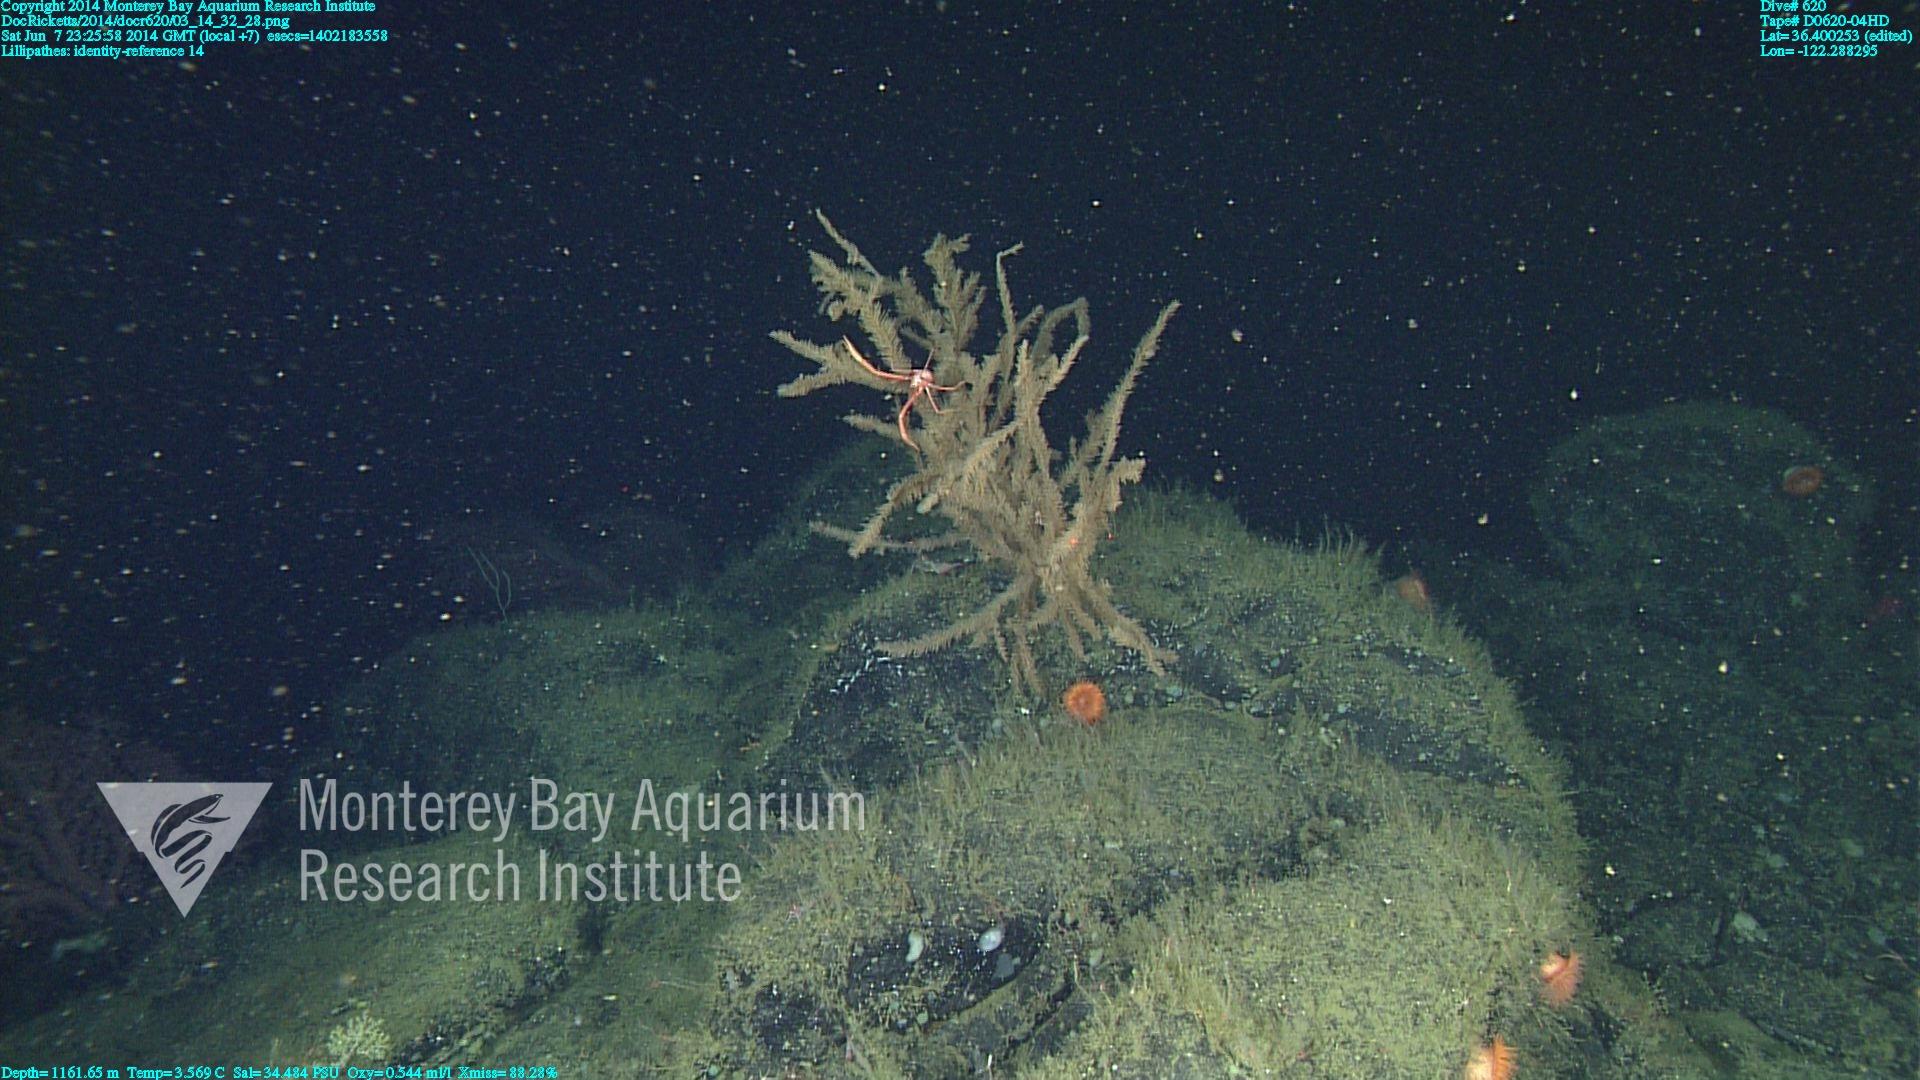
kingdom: Animalia
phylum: Cnidaria
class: Anthozoa
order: Antipatharia
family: Schizopathidae
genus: Lillipathes
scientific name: Lillipathes
